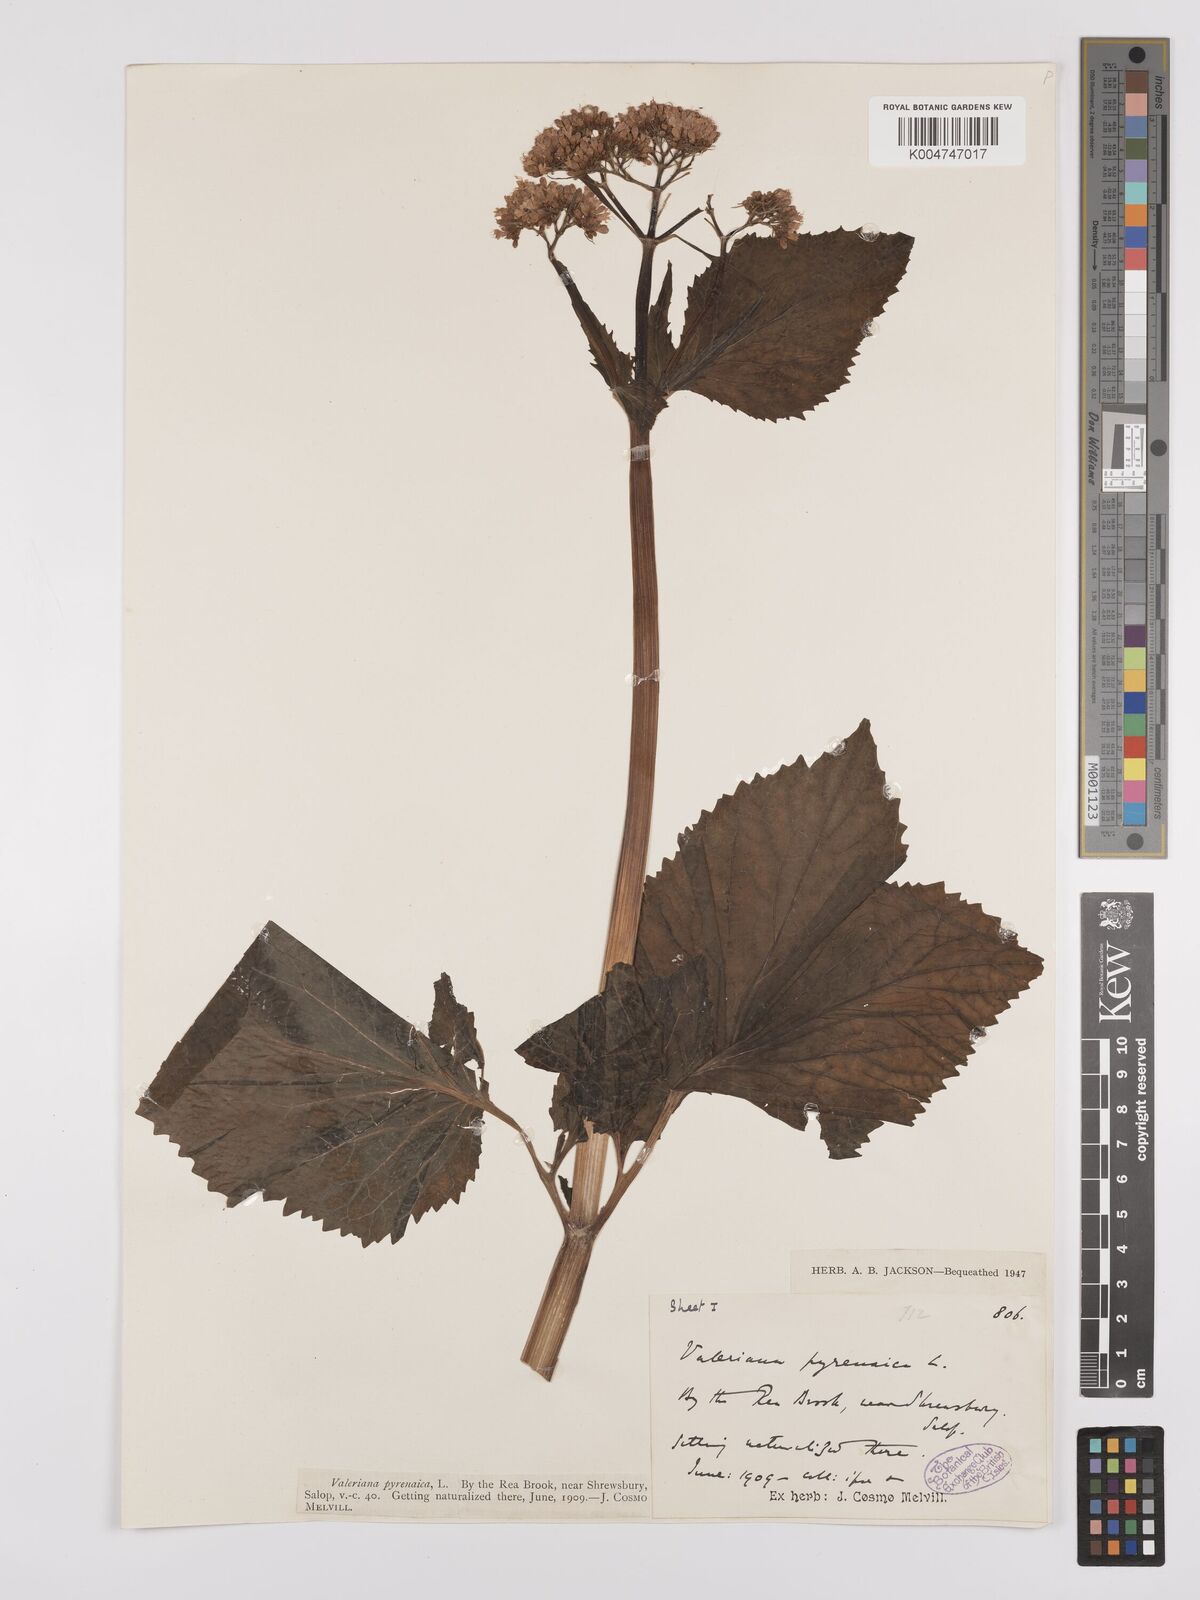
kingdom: Plantae
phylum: Tracheophyta
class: Magnoliopsida
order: Dipsacales
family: Caprifoliaceae
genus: Valeriana
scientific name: Valeriana pyrenaica
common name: Pyrenean valerian
